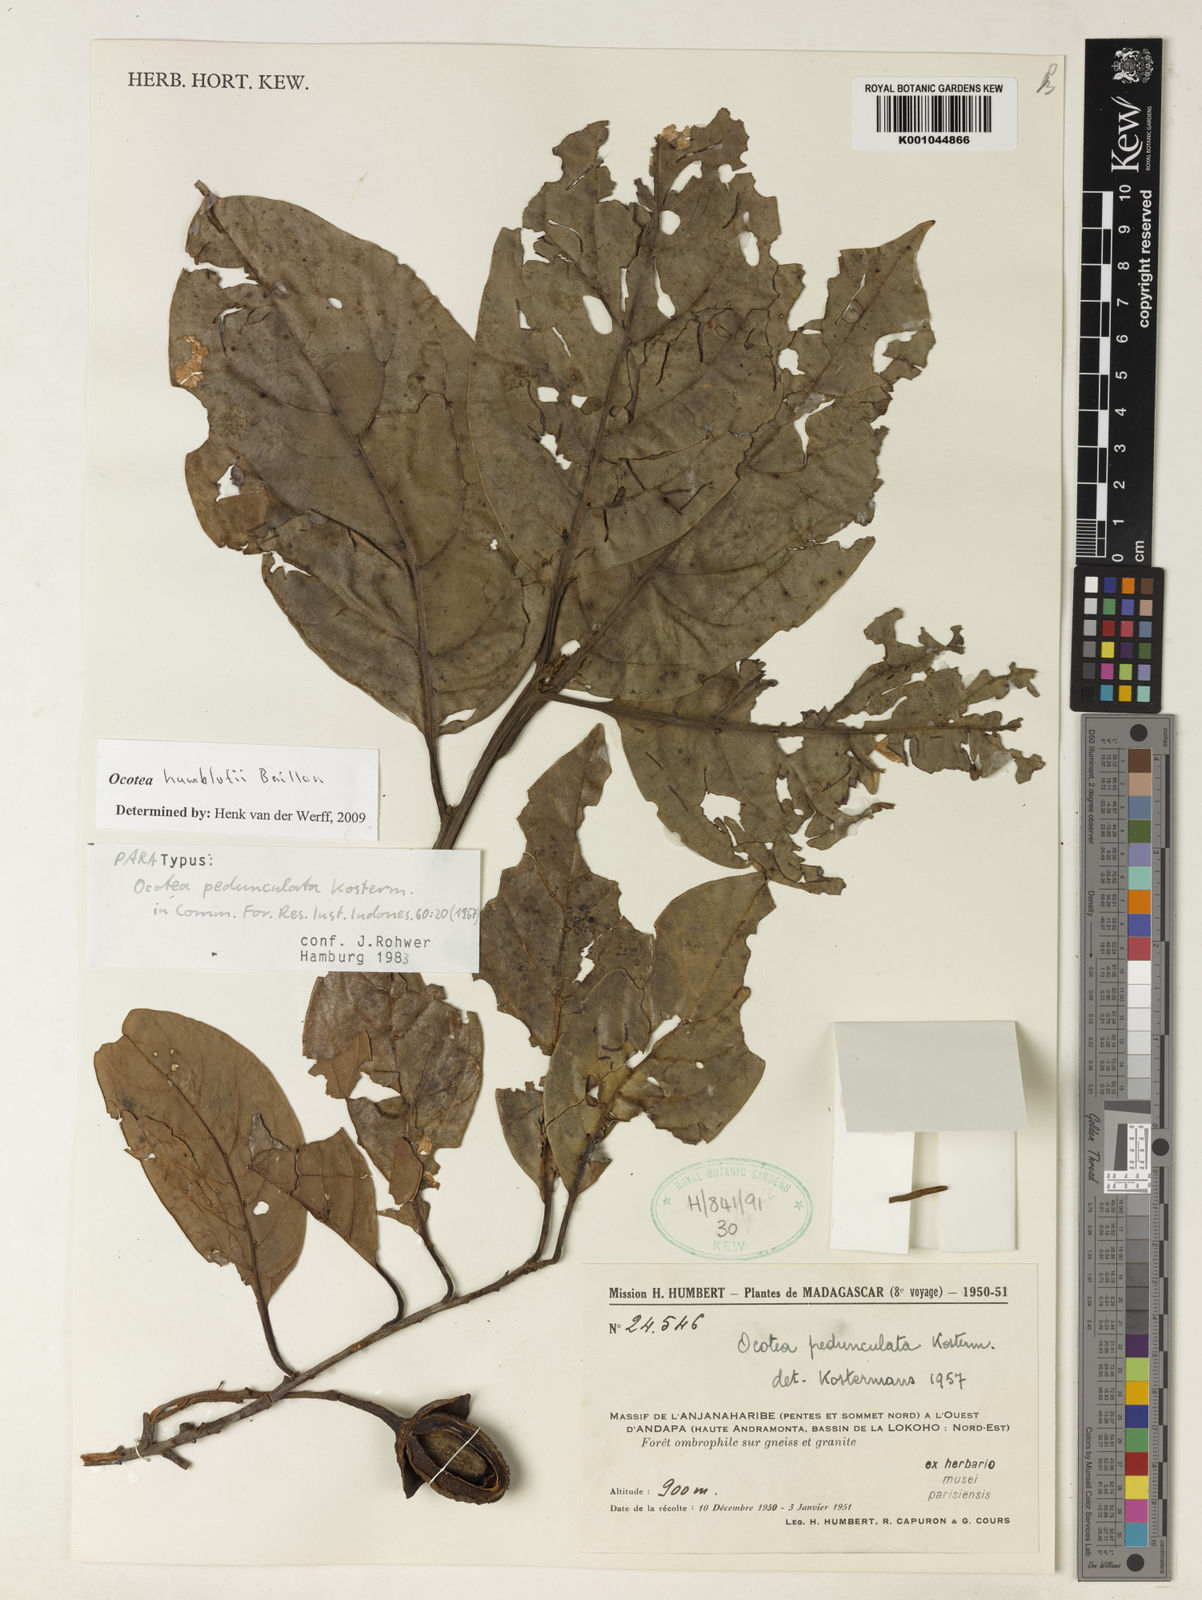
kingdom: Plantae
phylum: Tracheophyta
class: Magnoliopsida
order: Laurales
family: Lauraceae
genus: Ocotea
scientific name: Ocotea humblotii
